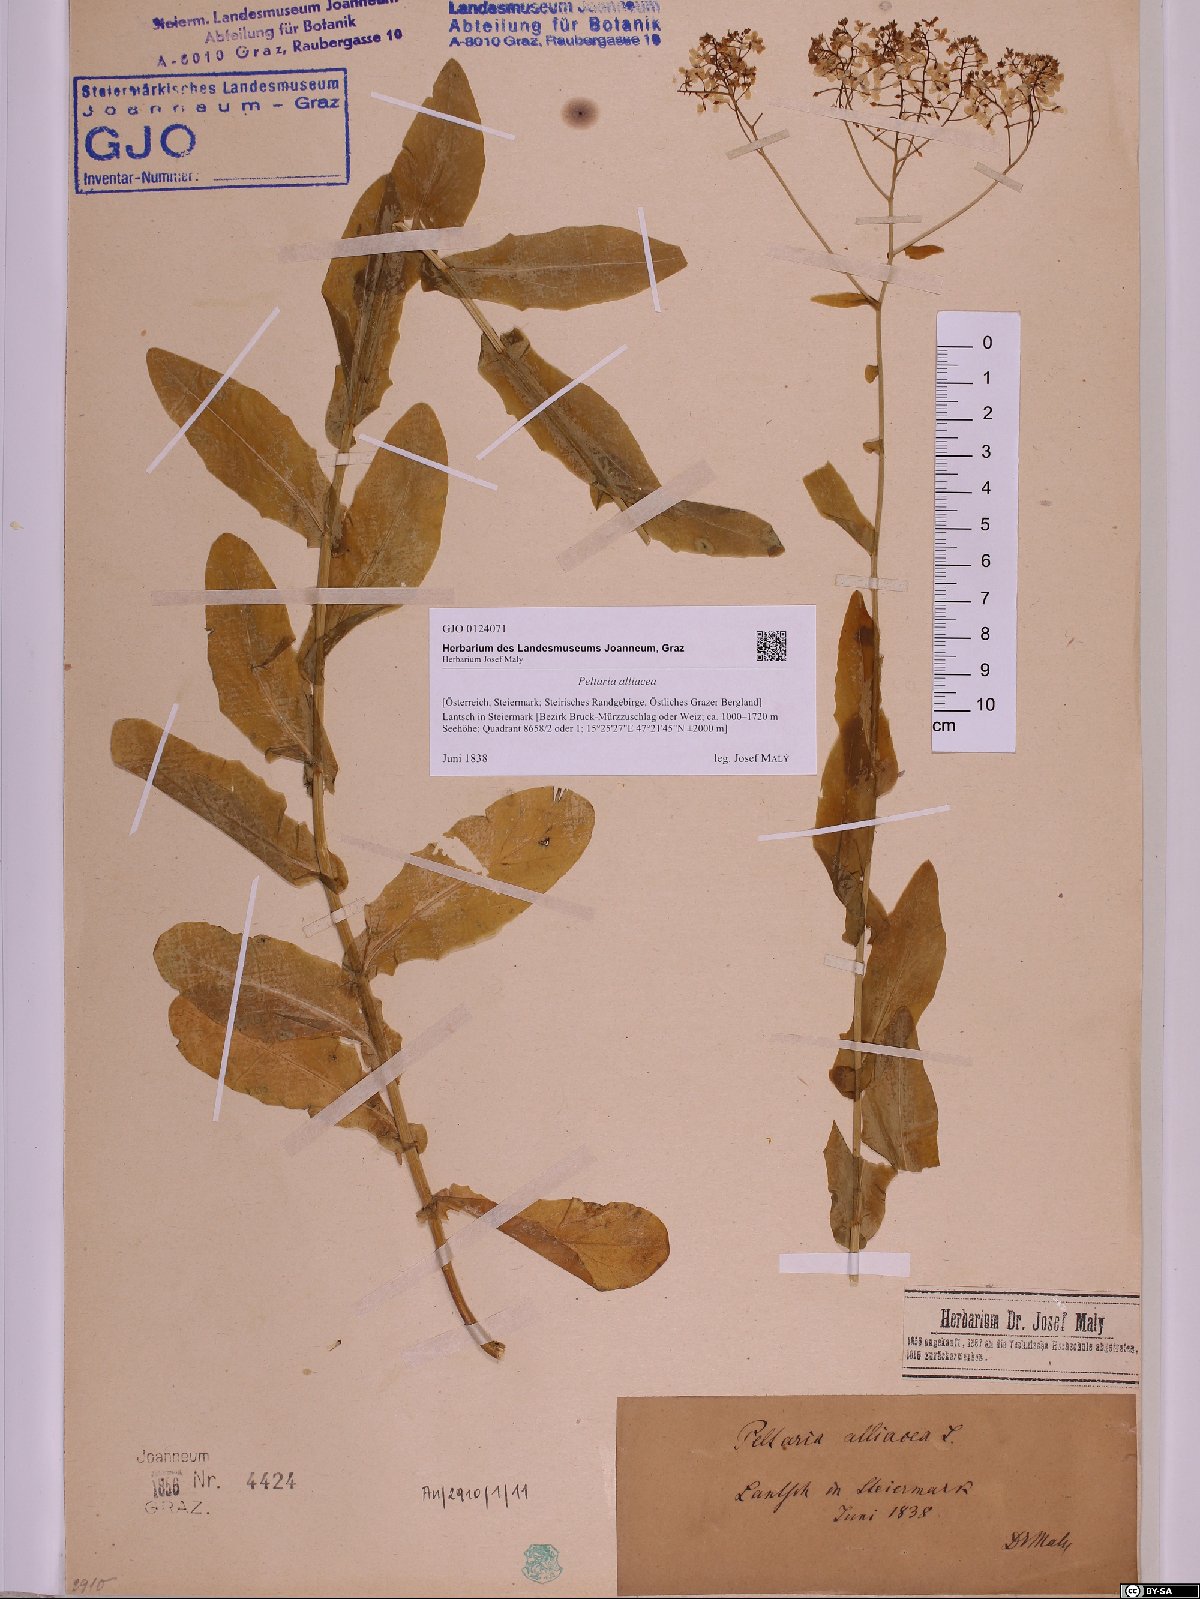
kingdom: Plantae
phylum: Tracheophyta
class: Magnoliopsida
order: Brassicales
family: Brassicaceae
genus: Peltaria
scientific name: Peltaria alliacea
